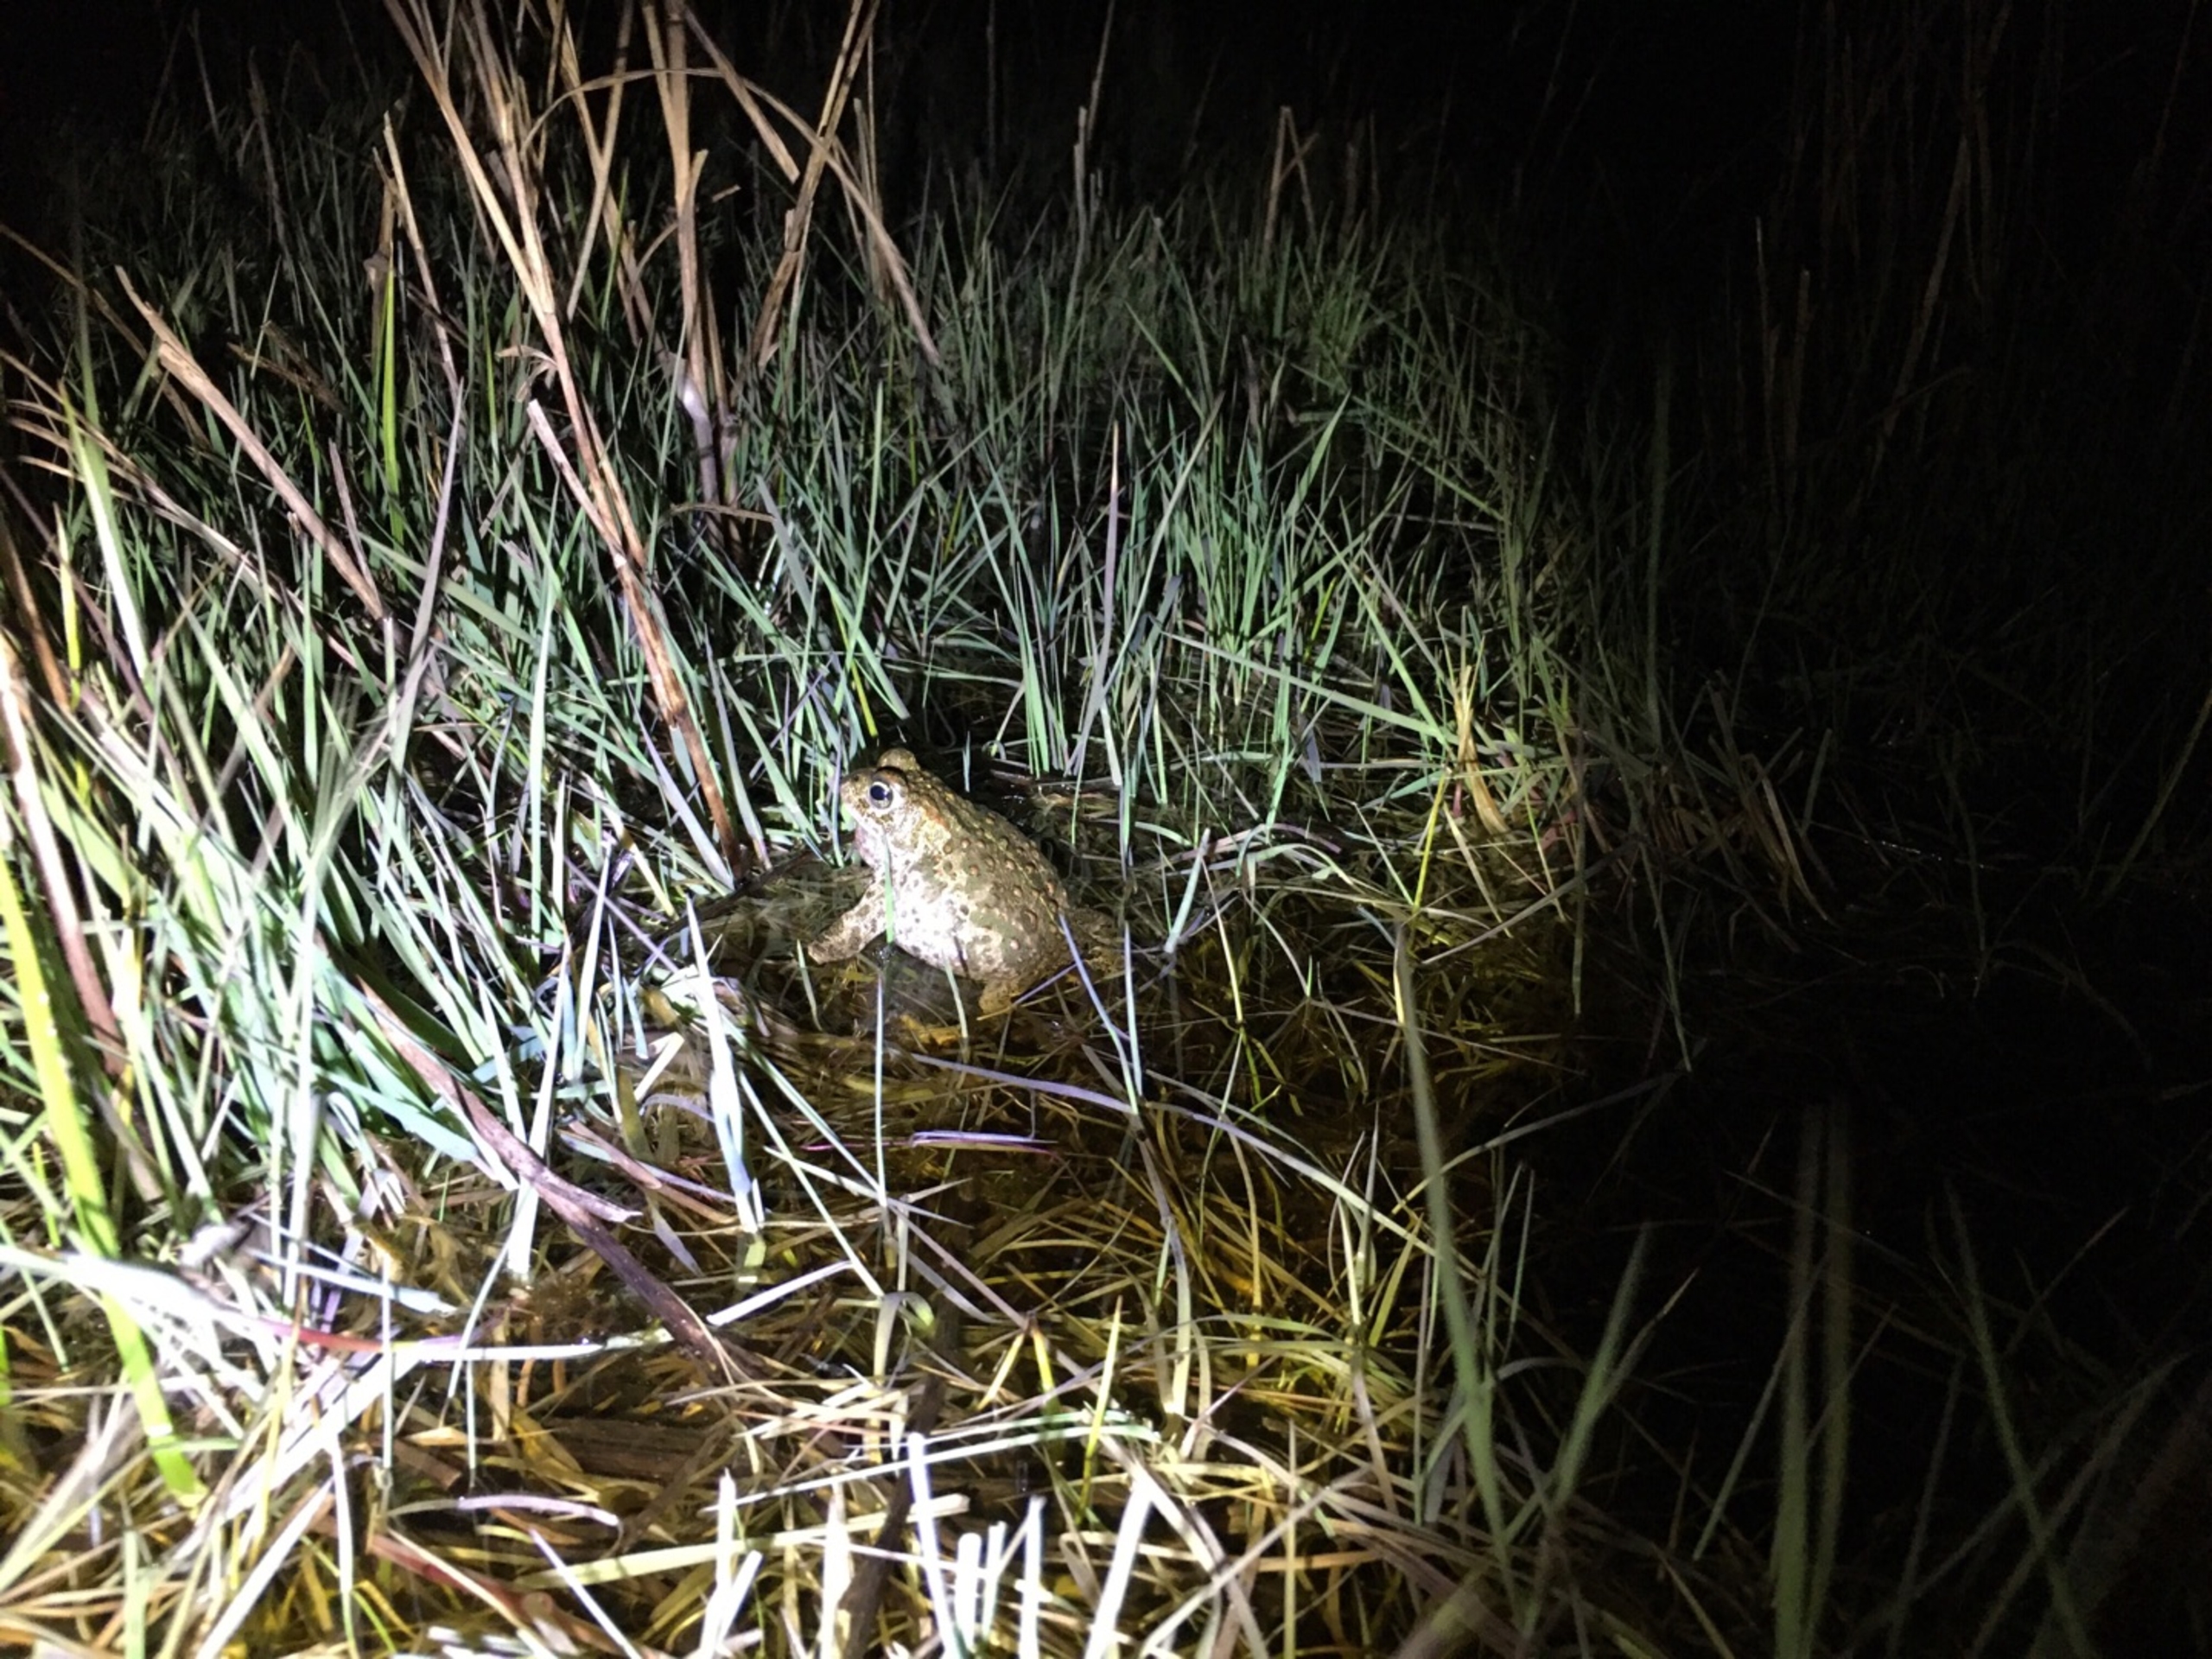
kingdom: Animalia
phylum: Chordata
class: Amphibia
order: Anura
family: Bufonidae
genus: Epidalea
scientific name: Epidalea calamita
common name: Strandtudse
